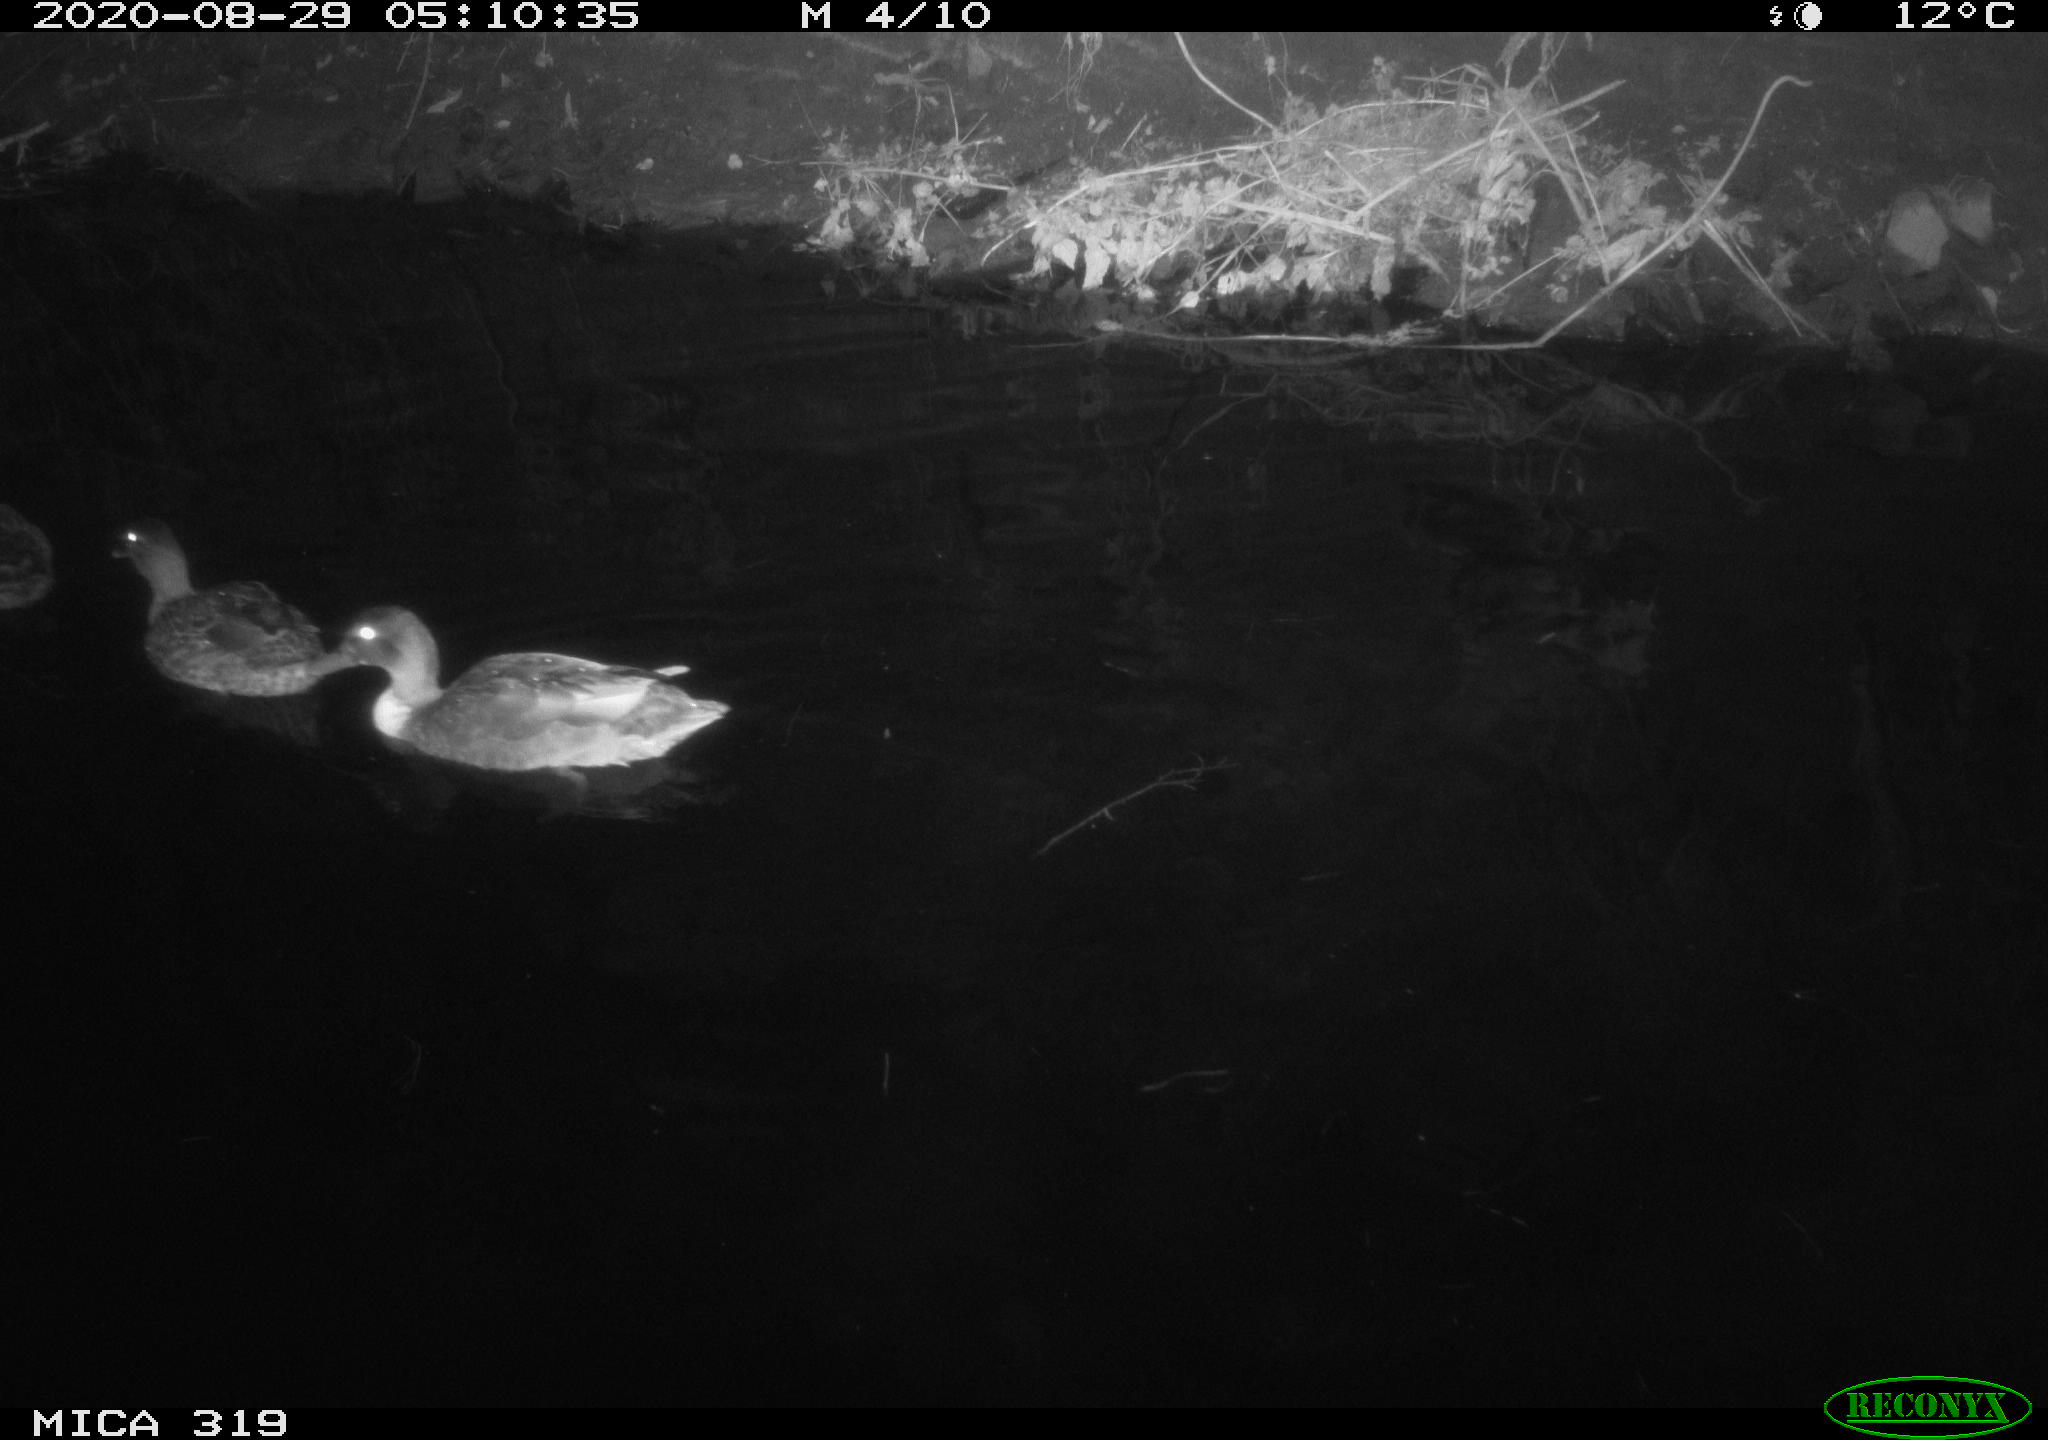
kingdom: Animalia
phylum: Chordata
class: Aves
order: Anseriformes
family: Anatidae
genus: Anas
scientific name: Anas platyrhynchos
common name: Mallard
